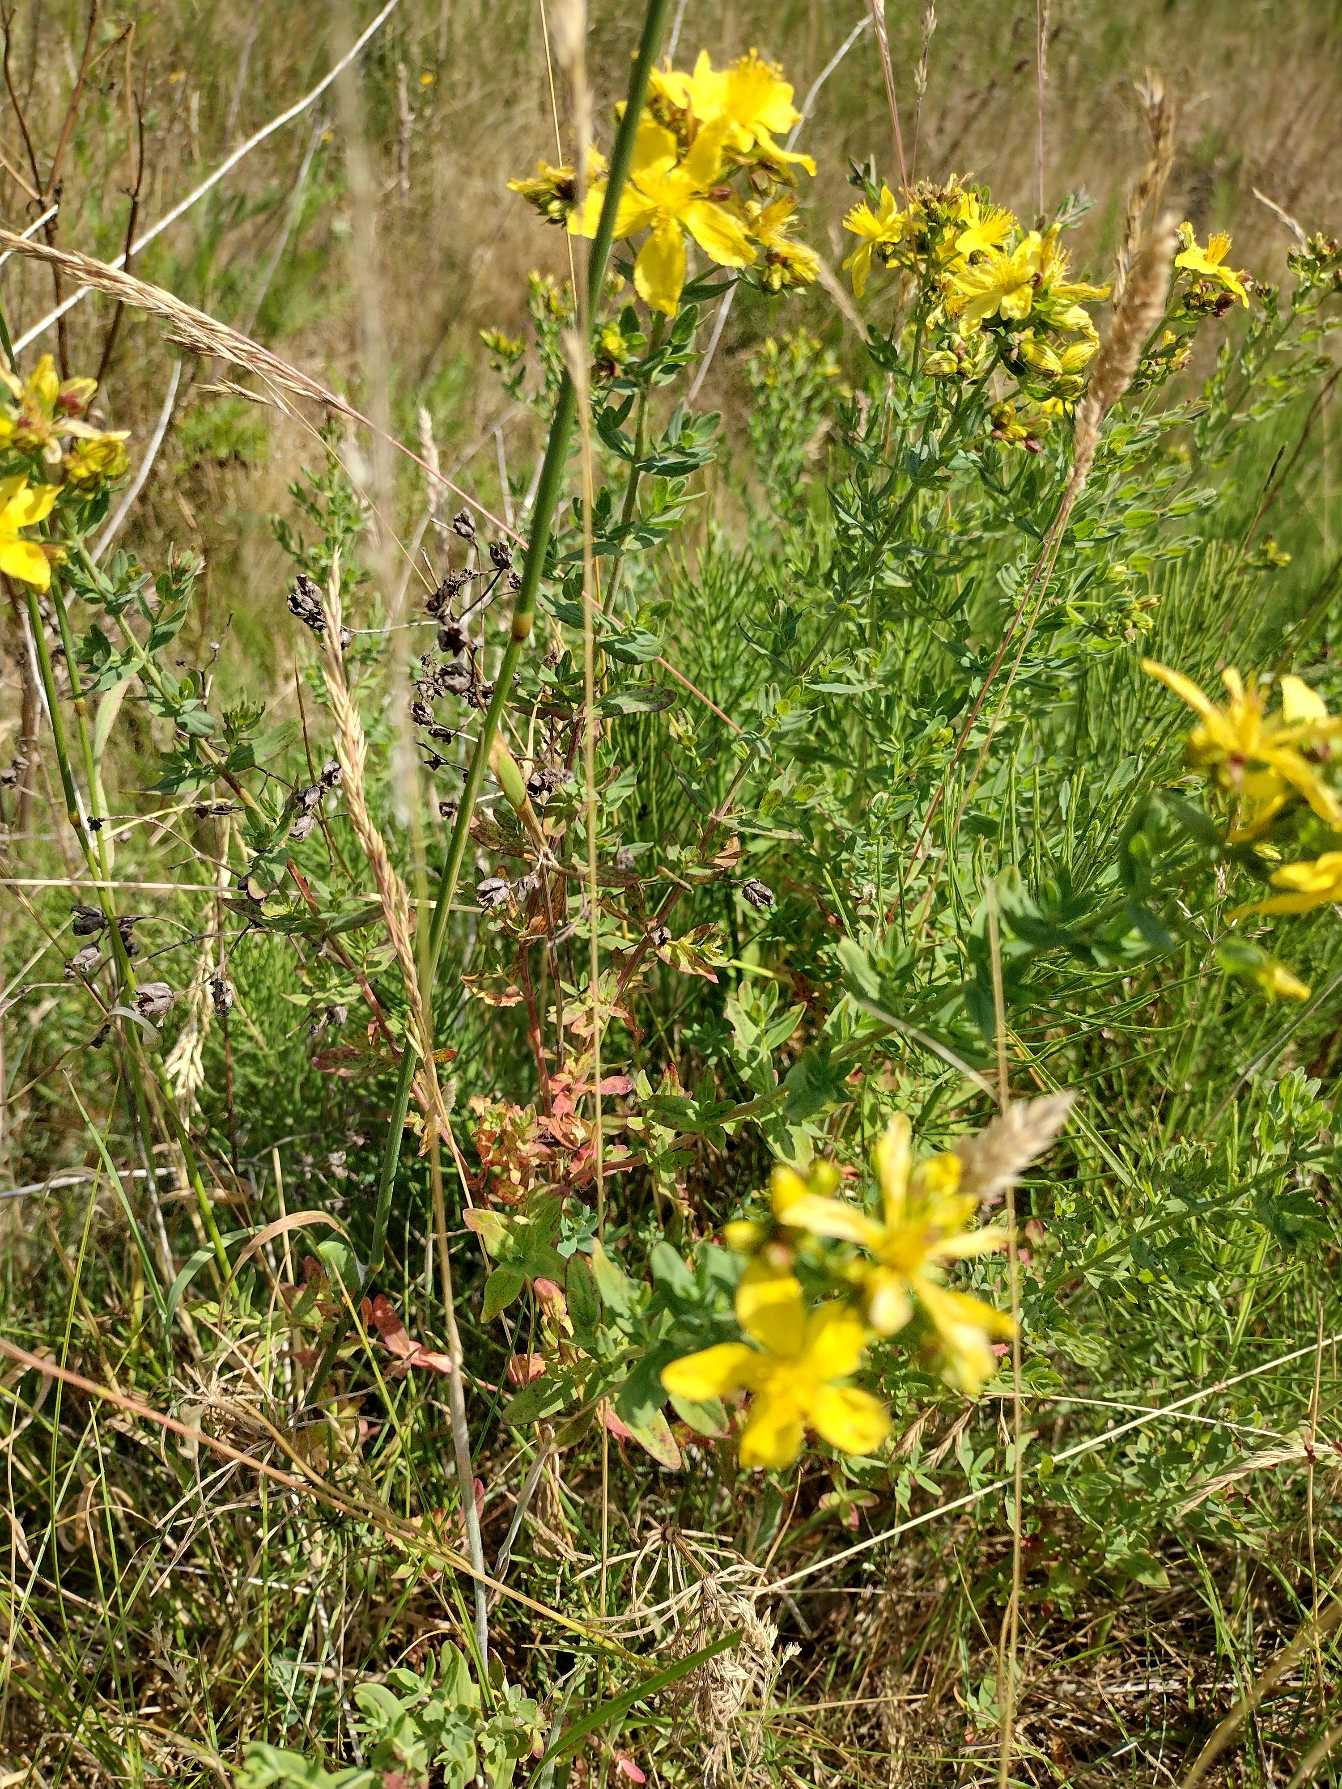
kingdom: Plantae
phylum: Tracheophyta
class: Magnoliopsida
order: Malpighiales
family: Hypericaceae
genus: Hypericum
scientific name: Hypericum perforatum
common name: Prikbladet perikon
